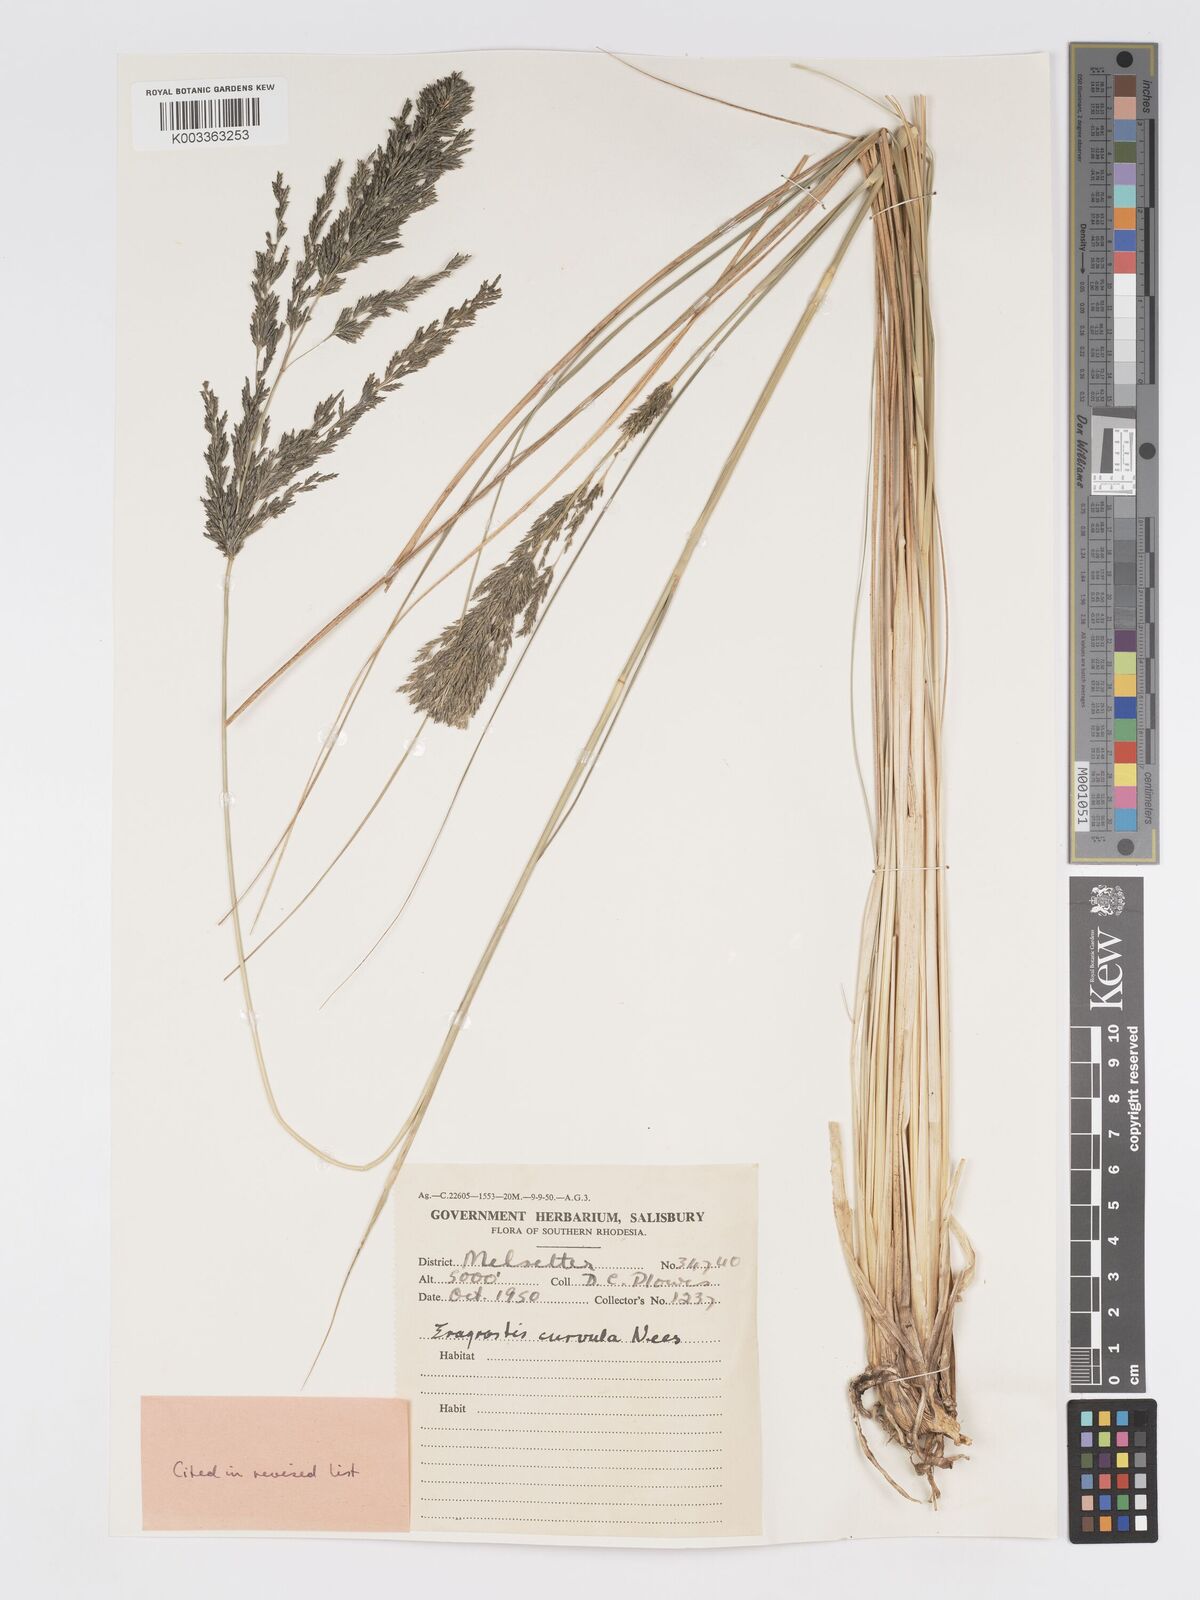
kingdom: Plantae
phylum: Tracheophyta
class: Liliopsida
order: Poales
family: Poaceae
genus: Eragrostis
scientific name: Eragrostis curvula
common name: African love-grass
